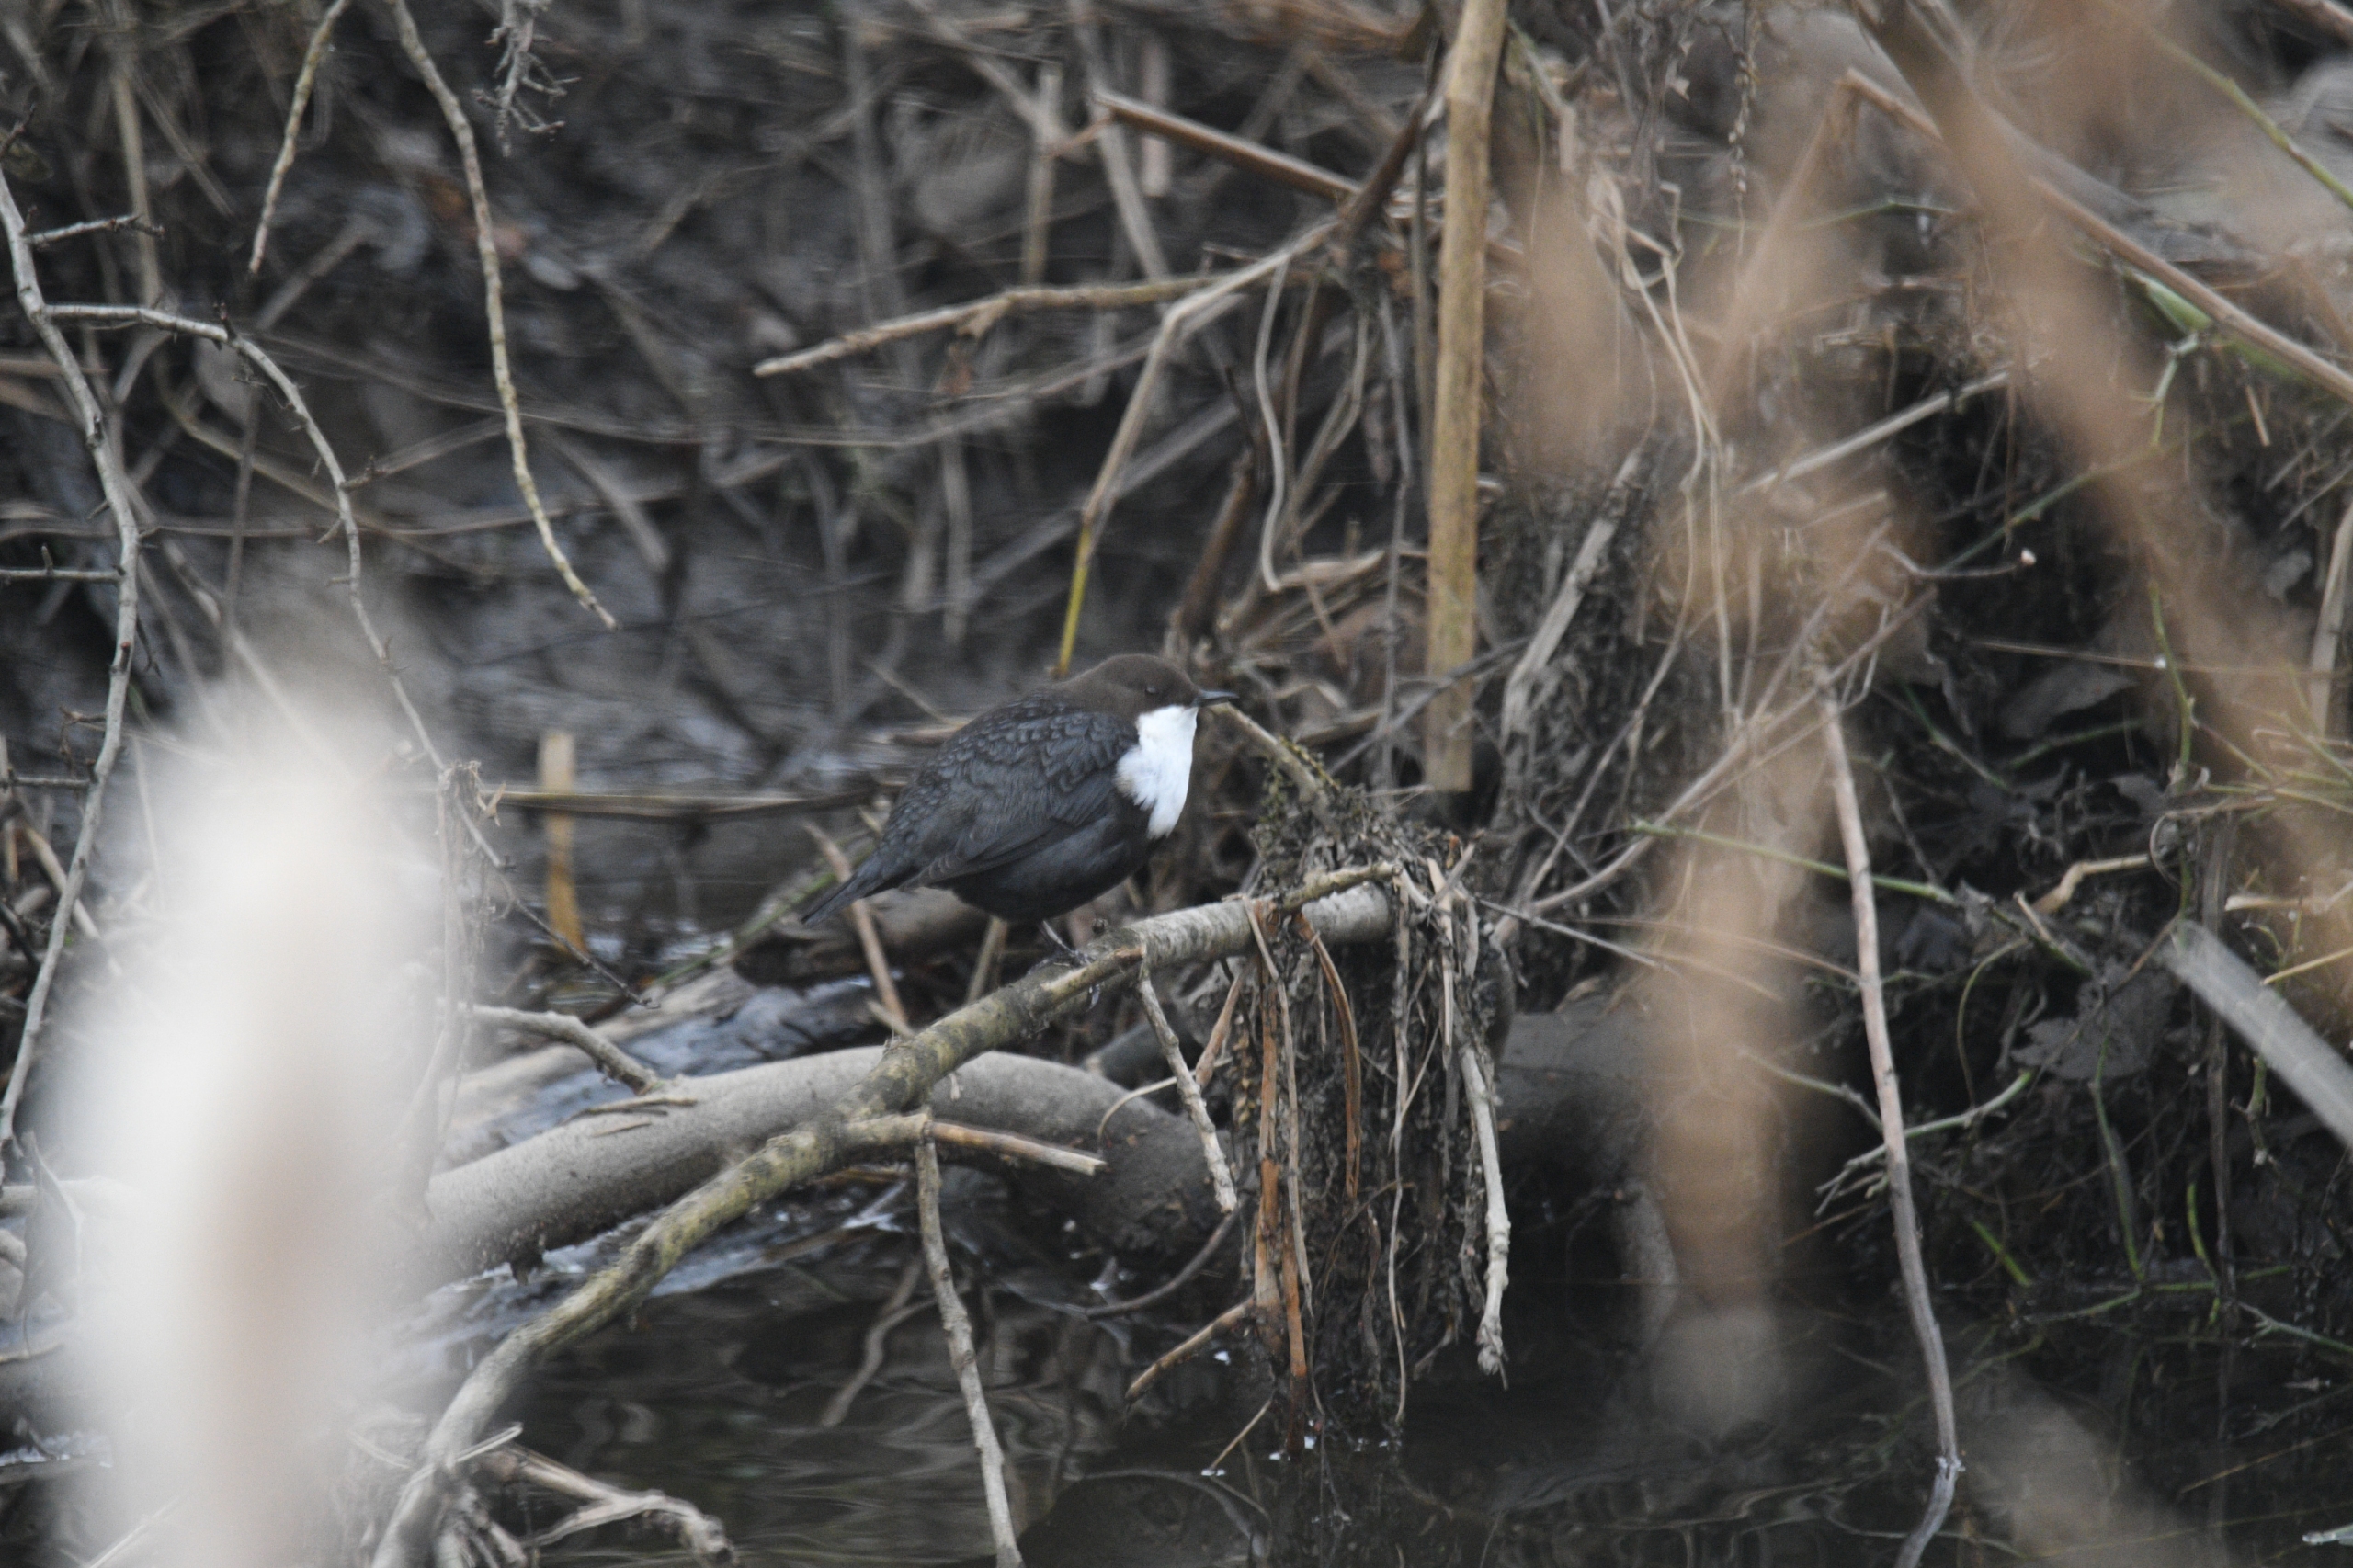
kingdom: Animalia
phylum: Chordata
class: Aves
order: Passeriformes
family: Cinclidae
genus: Cinclus
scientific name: Cinclus cinclus
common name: Vandstær
